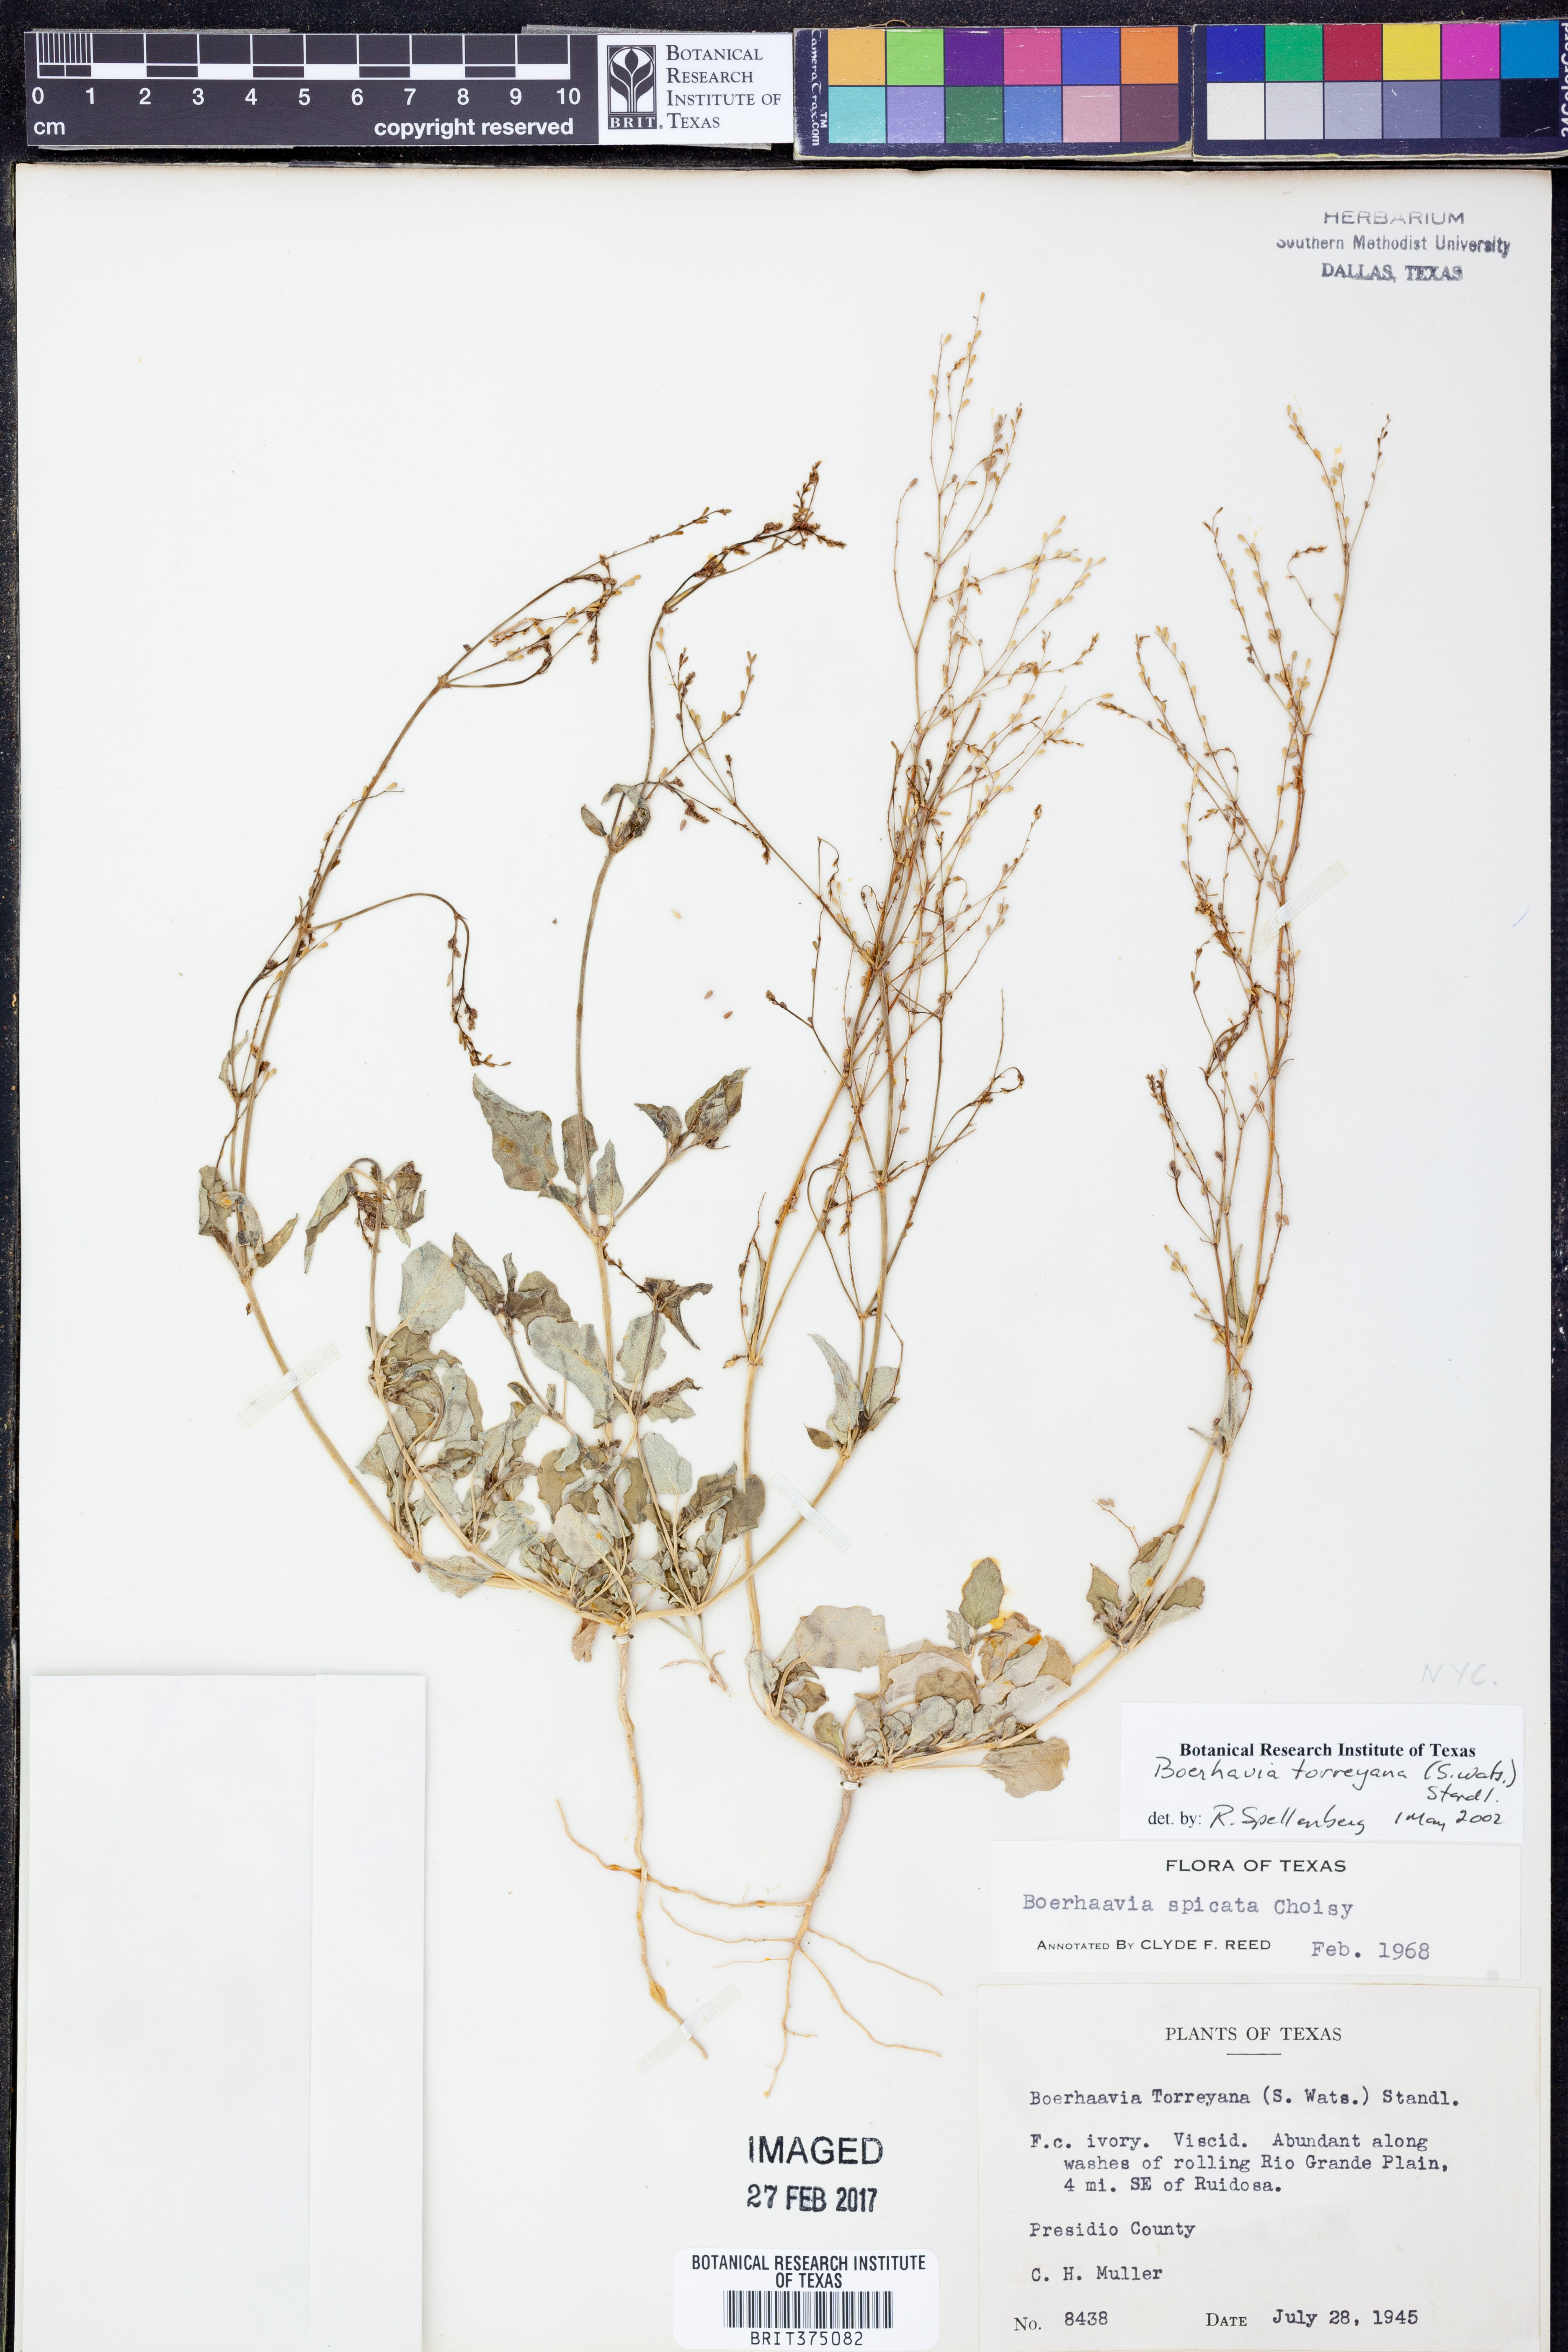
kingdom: Plantae
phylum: Tracheophyta
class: Magnoliopsida
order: Caryophyllales
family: Nyctaginaceae
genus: Boerhavia
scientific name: Boerhavia torreyana
